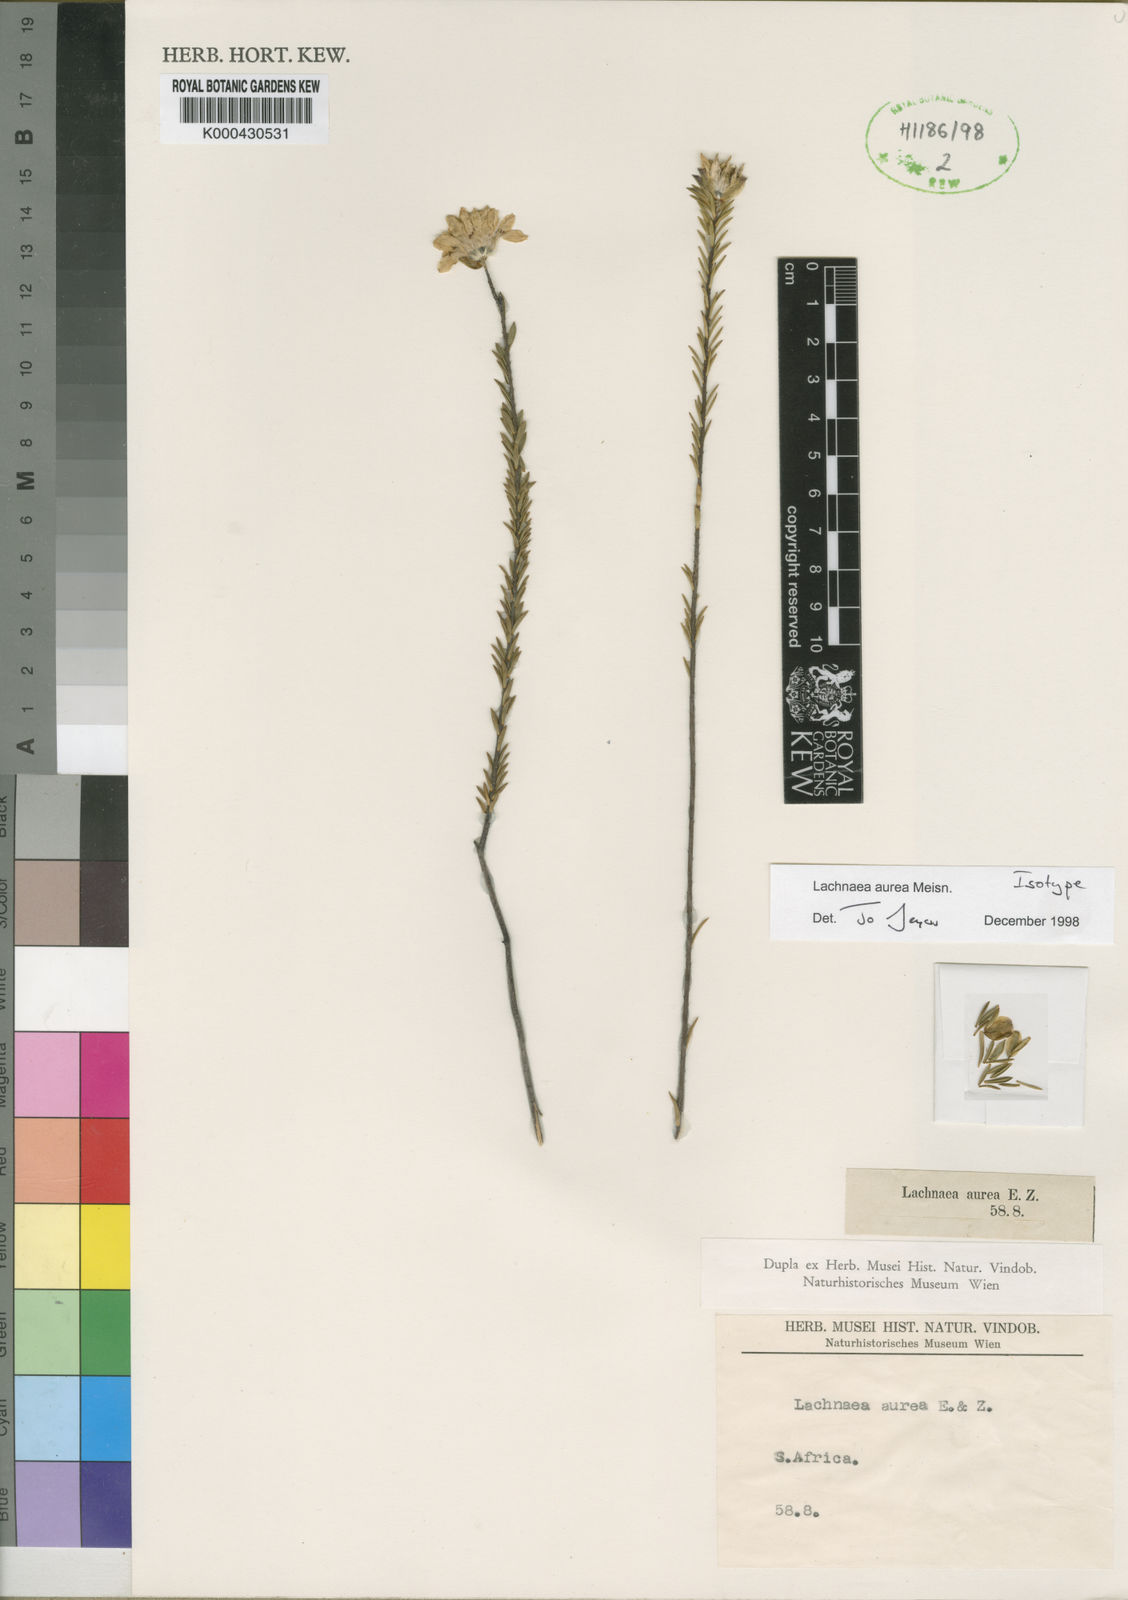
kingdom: Plantae
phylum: Tracheophyta
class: Magnoliopsida
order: Malvales
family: Thymelaeaceae
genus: Lachnaea
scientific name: Lachnaea aurea
